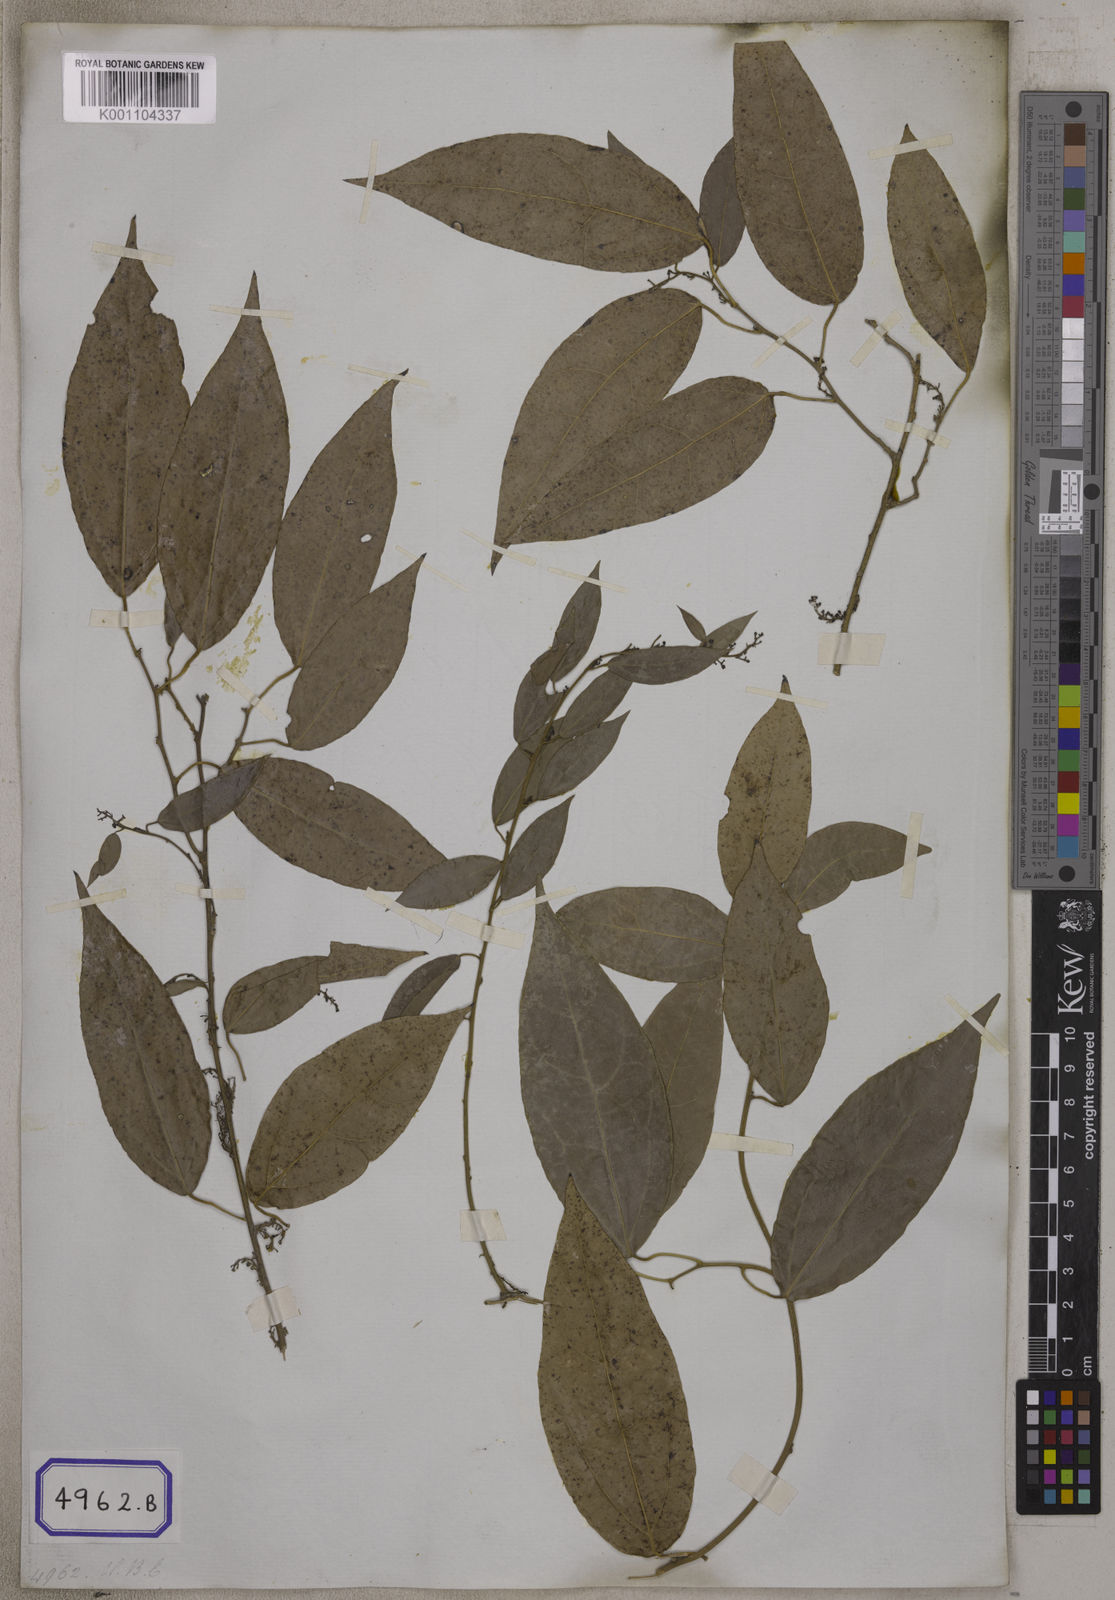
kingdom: Plantae
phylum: Tracheophyta
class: Magnoliopsida
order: Ranunculales
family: Menispermaceae
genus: Tiliacora
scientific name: Tiliacora triandra
